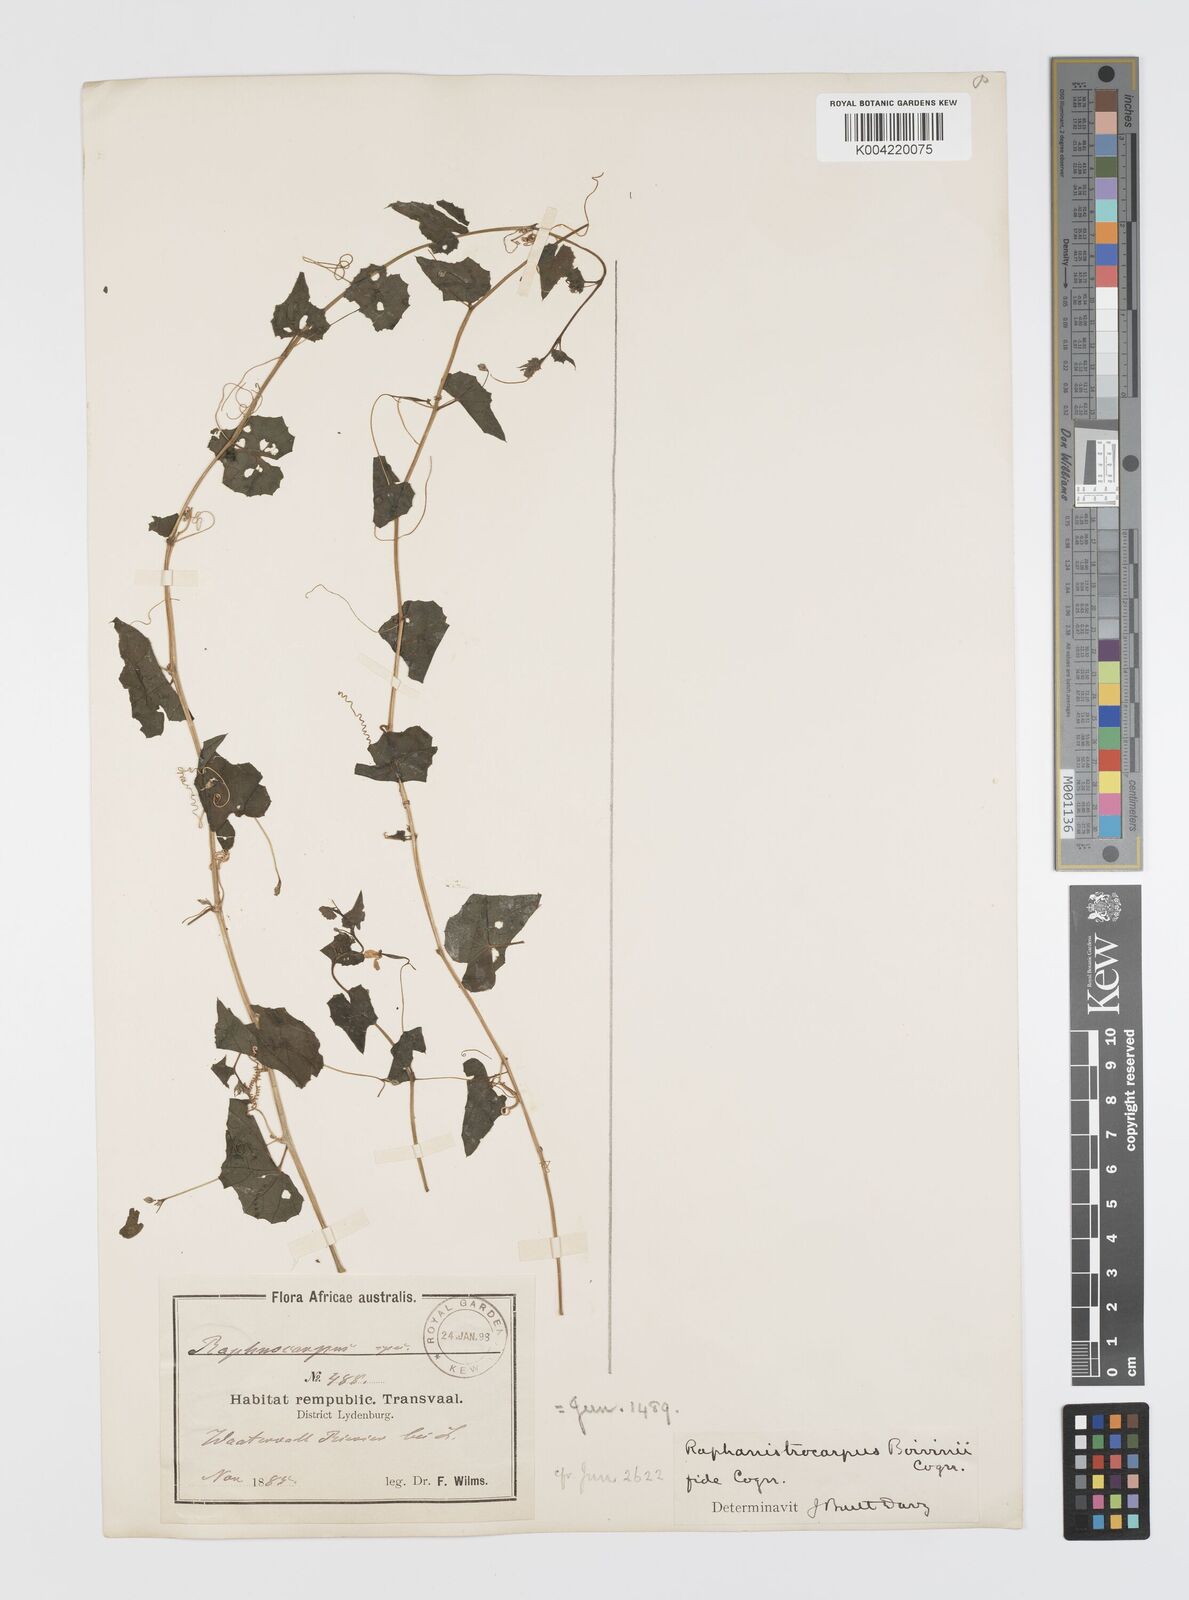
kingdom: Plantae
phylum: Tracheophyta
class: Magnoliopsida
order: Cucurbitales
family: Cucurbitaceae
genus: Momordica
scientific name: Momordica boivinii
